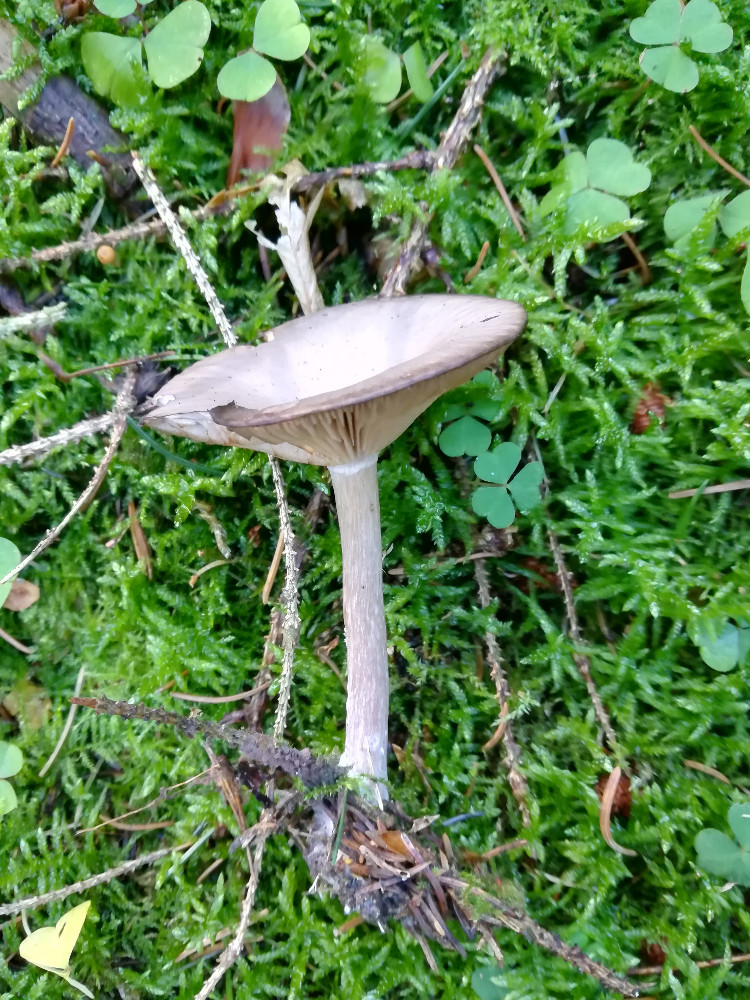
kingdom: Fungi
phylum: Basidiomycota
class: Agaricomycetes
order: Agaricales
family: Pseudoclitocybaceae
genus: Pseudoclitocybe
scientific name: Pseudoclitocybe cyathiformis
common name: almindelig bægertragthat
